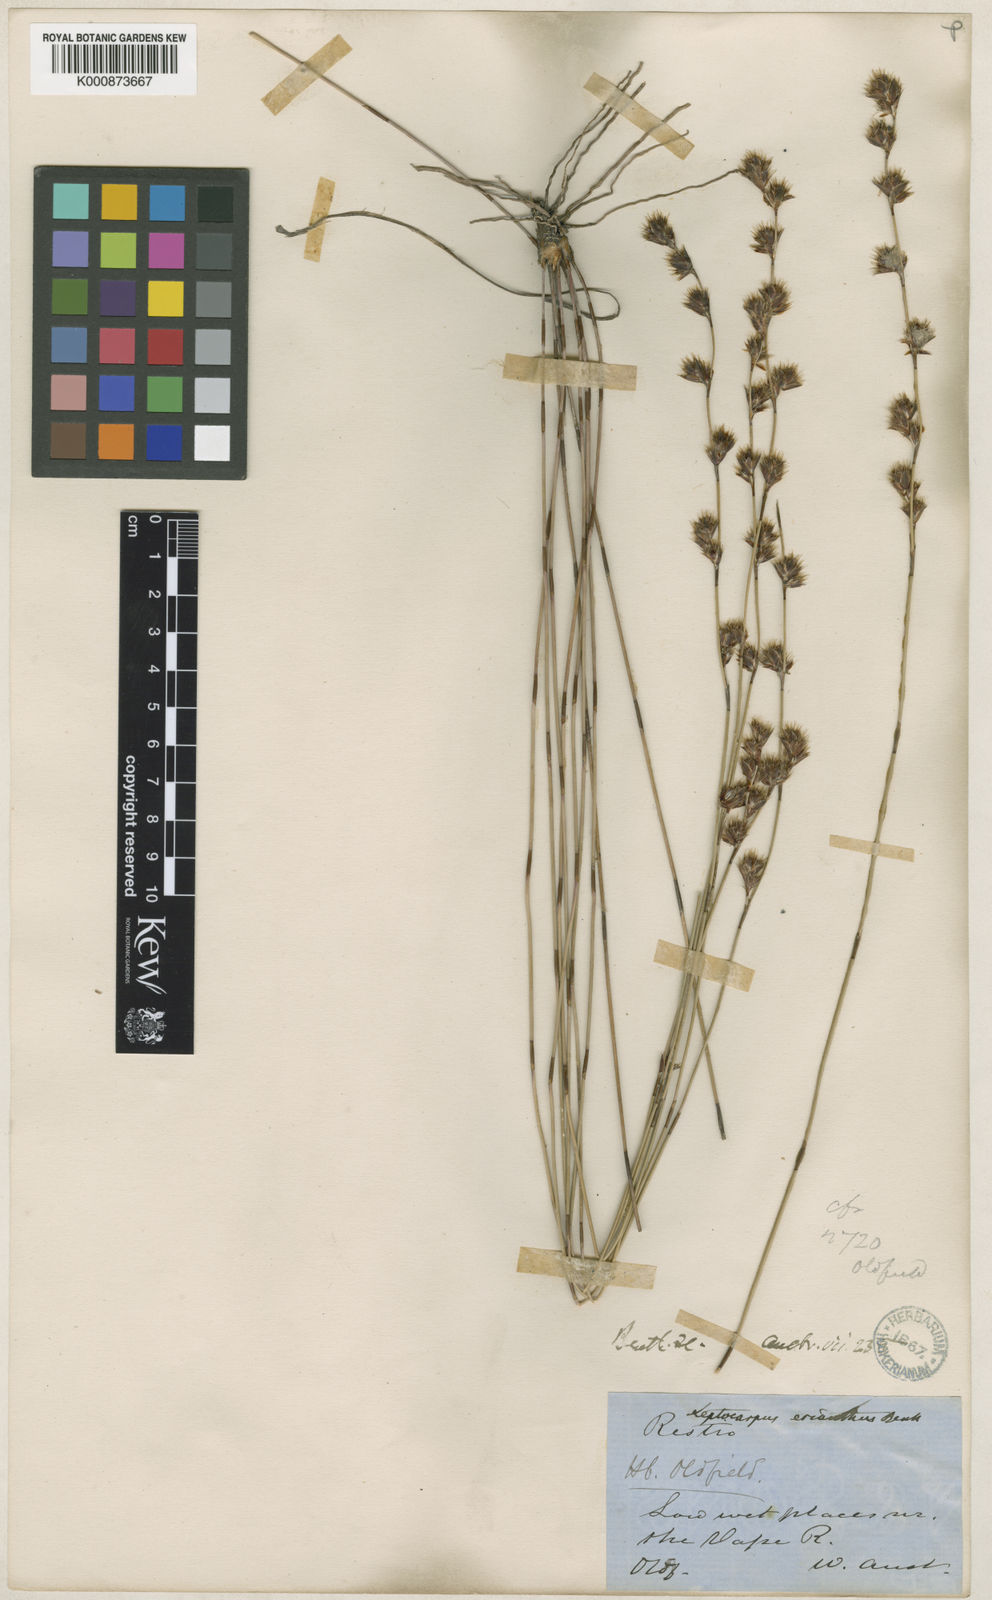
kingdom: Plantae
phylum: Tracheophyta
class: Liliopsida
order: Poales
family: Restionaceae
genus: Chaetanthus
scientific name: Chaetanthus aristatus
